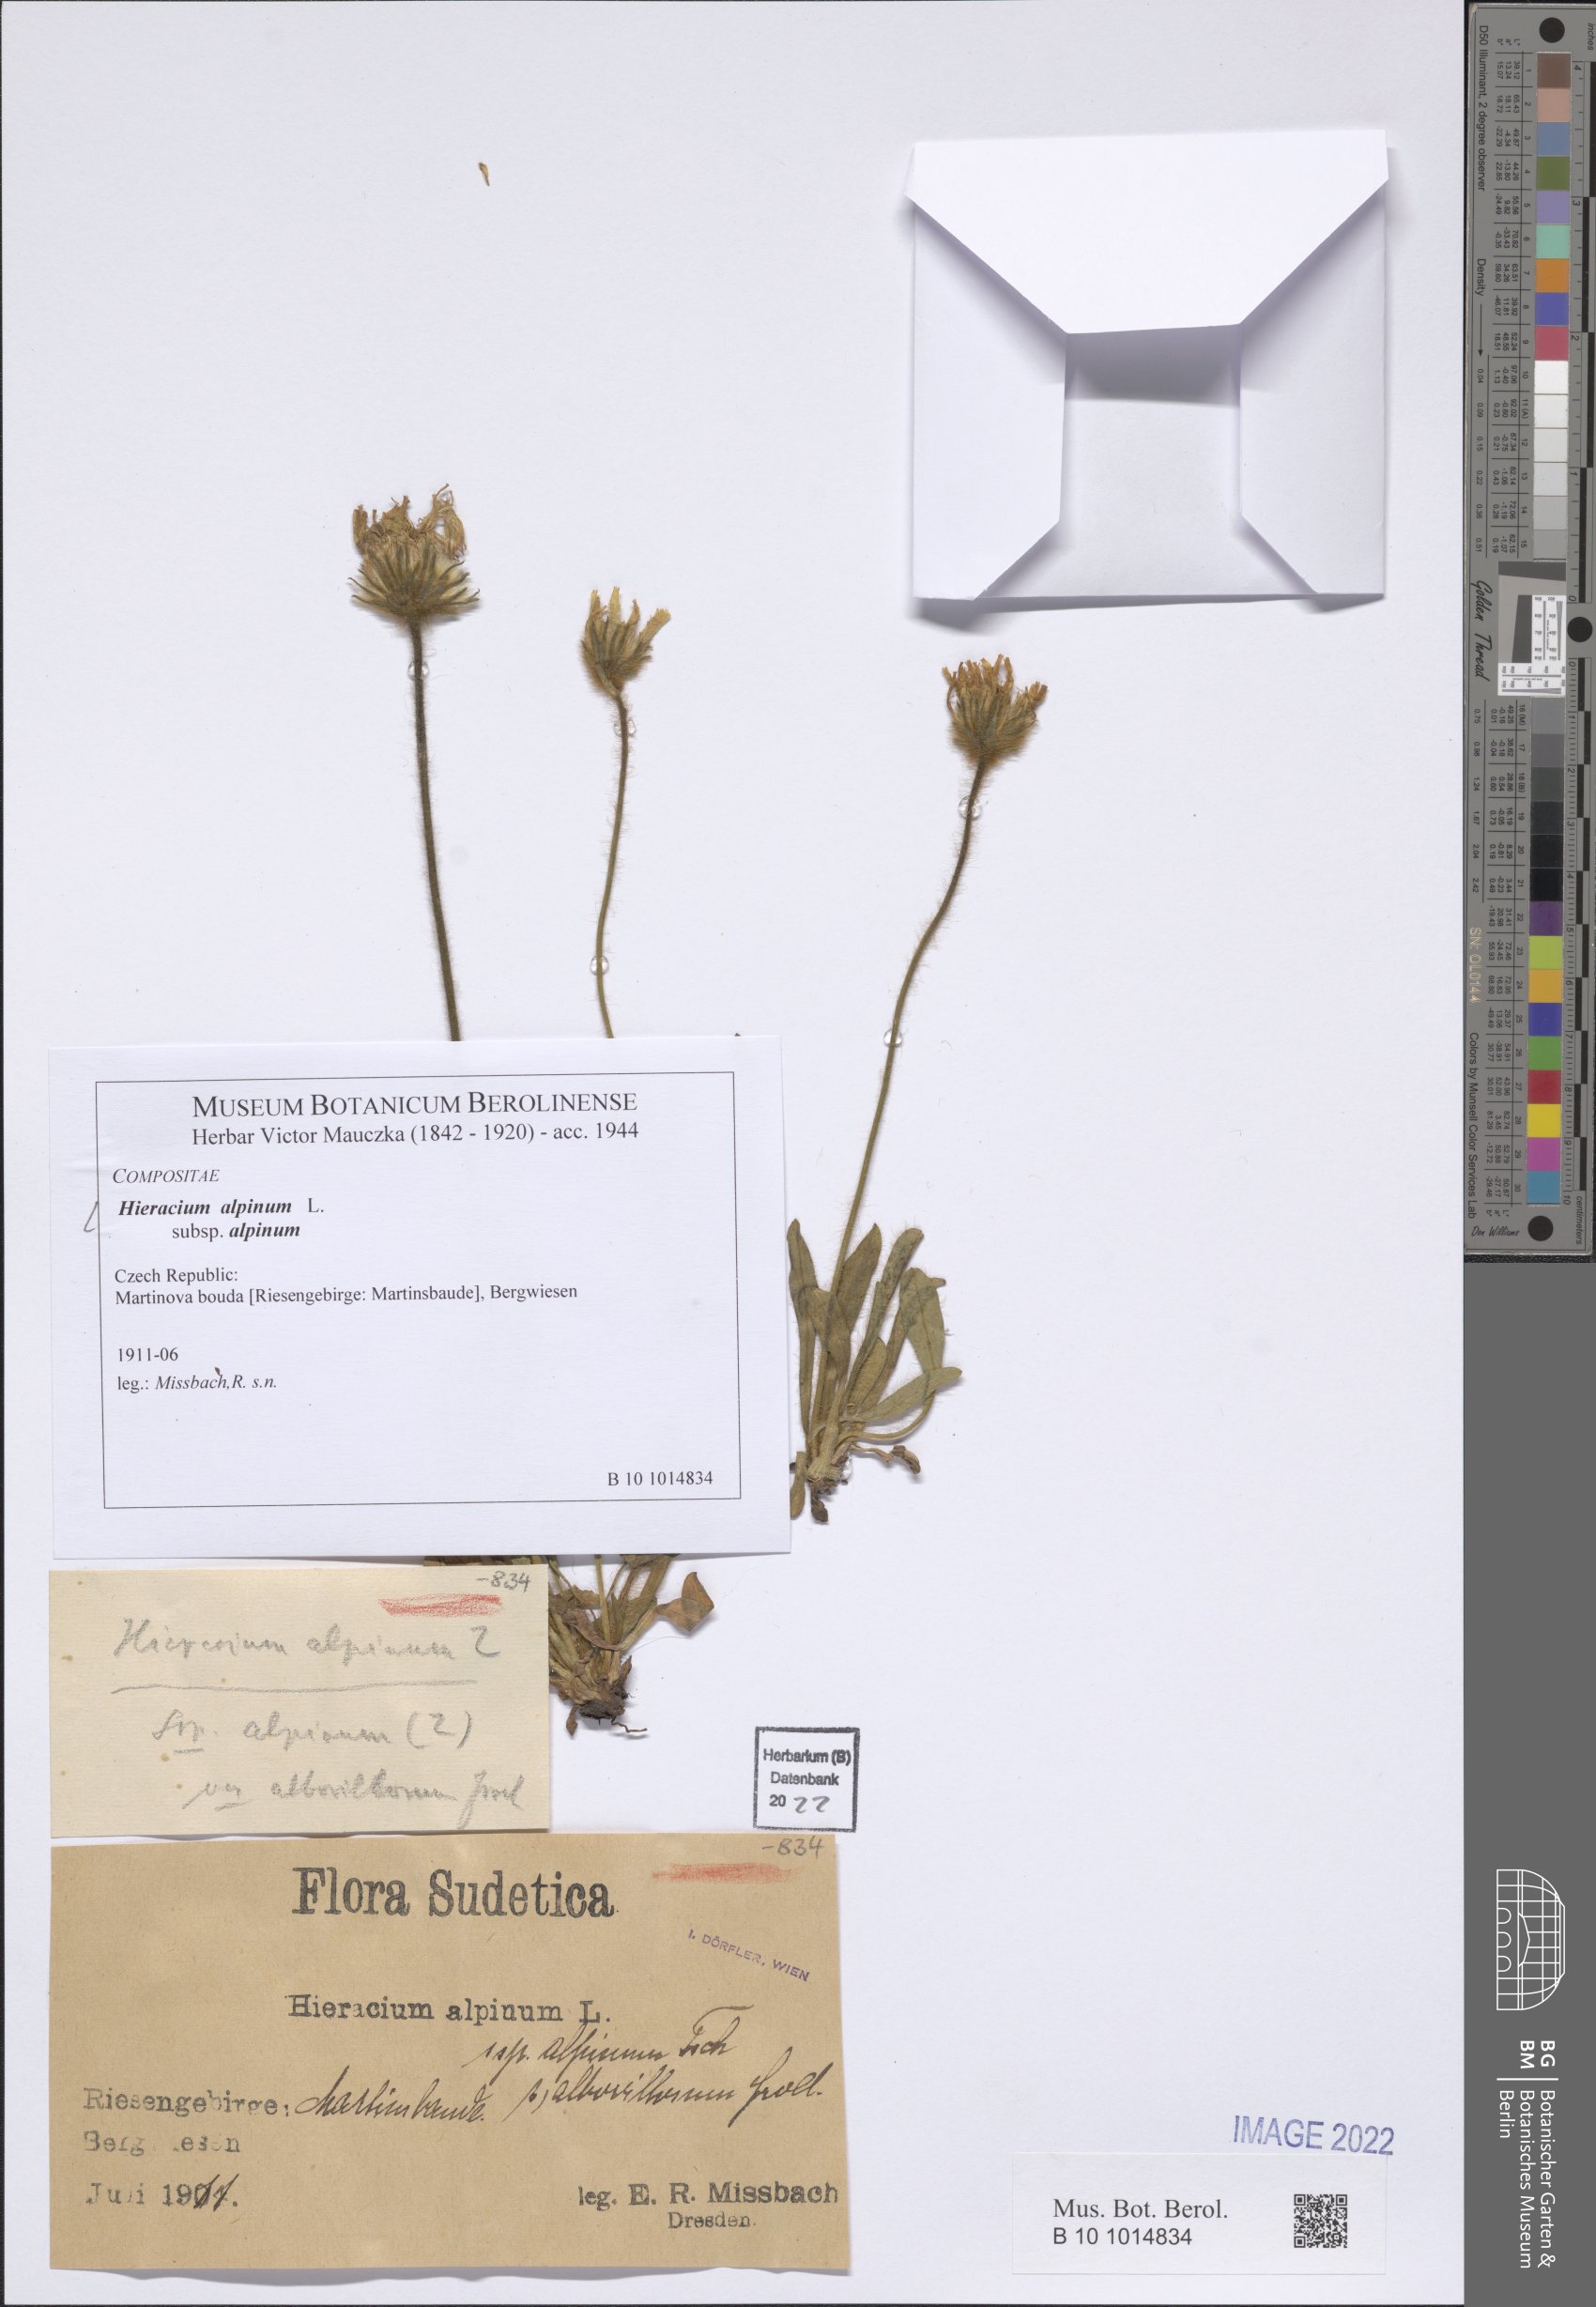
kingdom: Plantae
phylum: Tracheophyta
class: Magnoliopsida
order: Asterales
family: Asteraceae
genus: Hieracium
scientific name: Hieracium alpinum
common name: Alpine hawkweed
